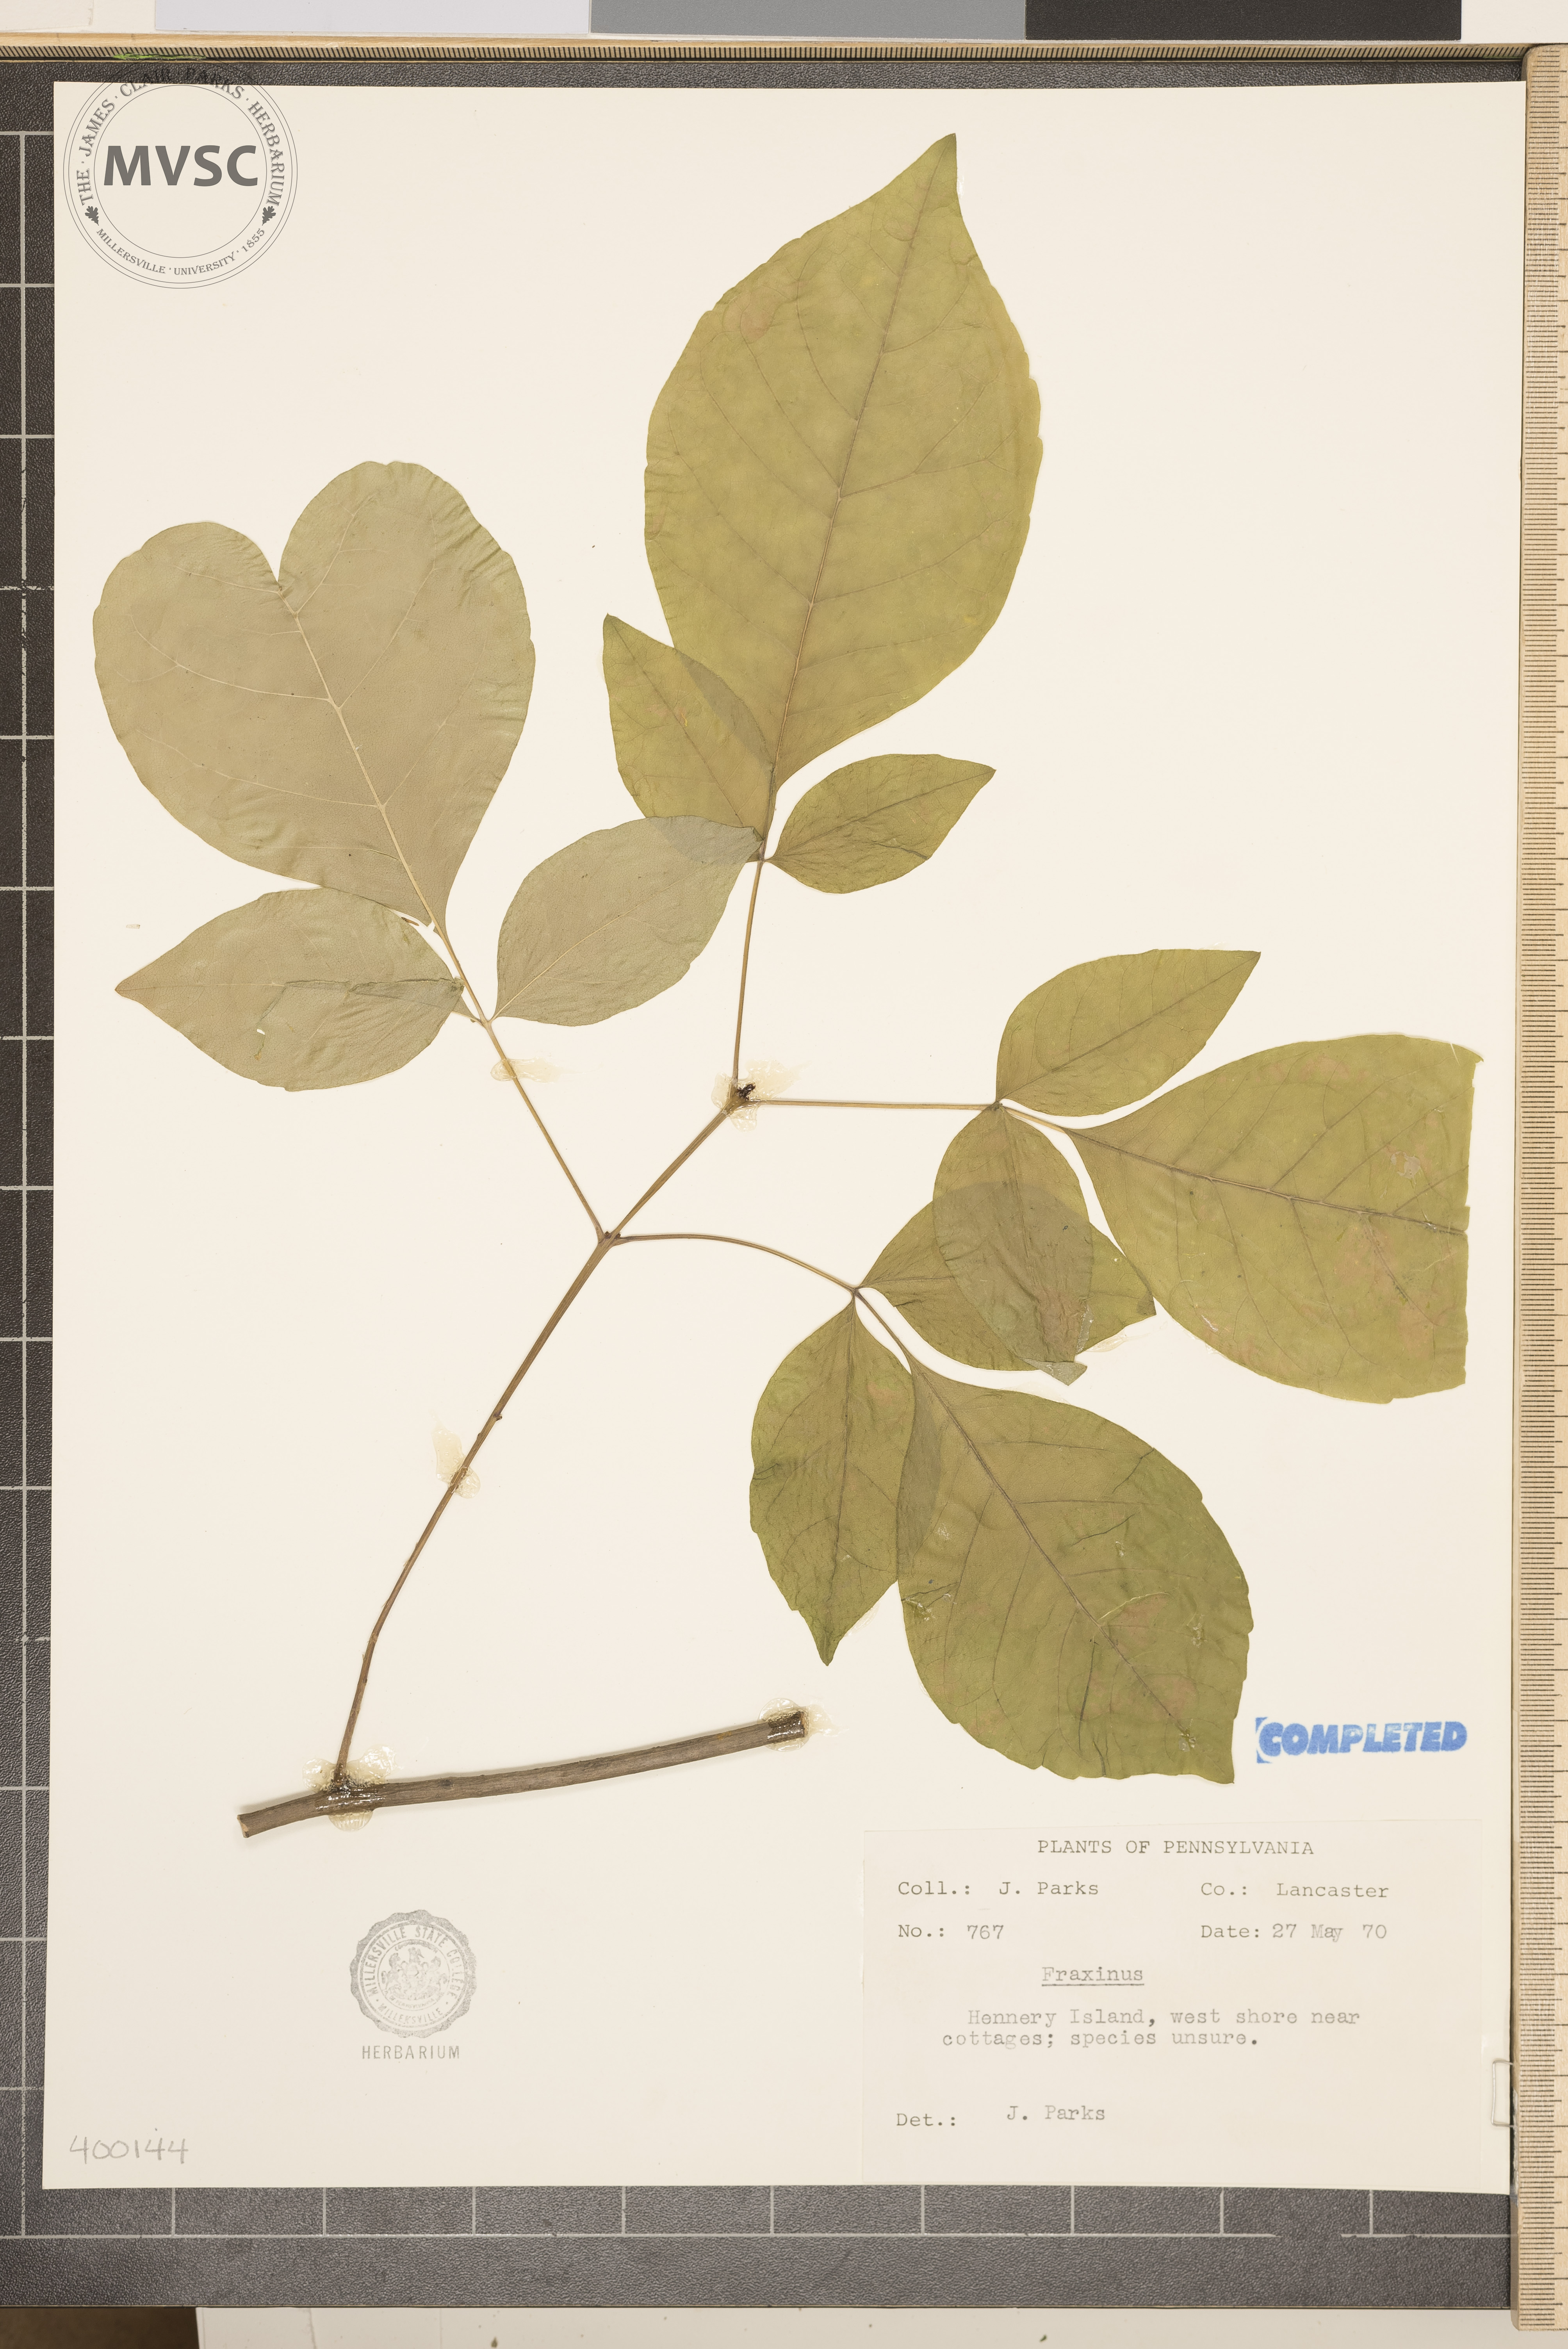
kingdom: Plantae
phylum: Tracheophyta
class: Magnoliopsida
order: Lamiales
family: Oleaceae
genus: Fraxinus
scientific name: Fraxinus
